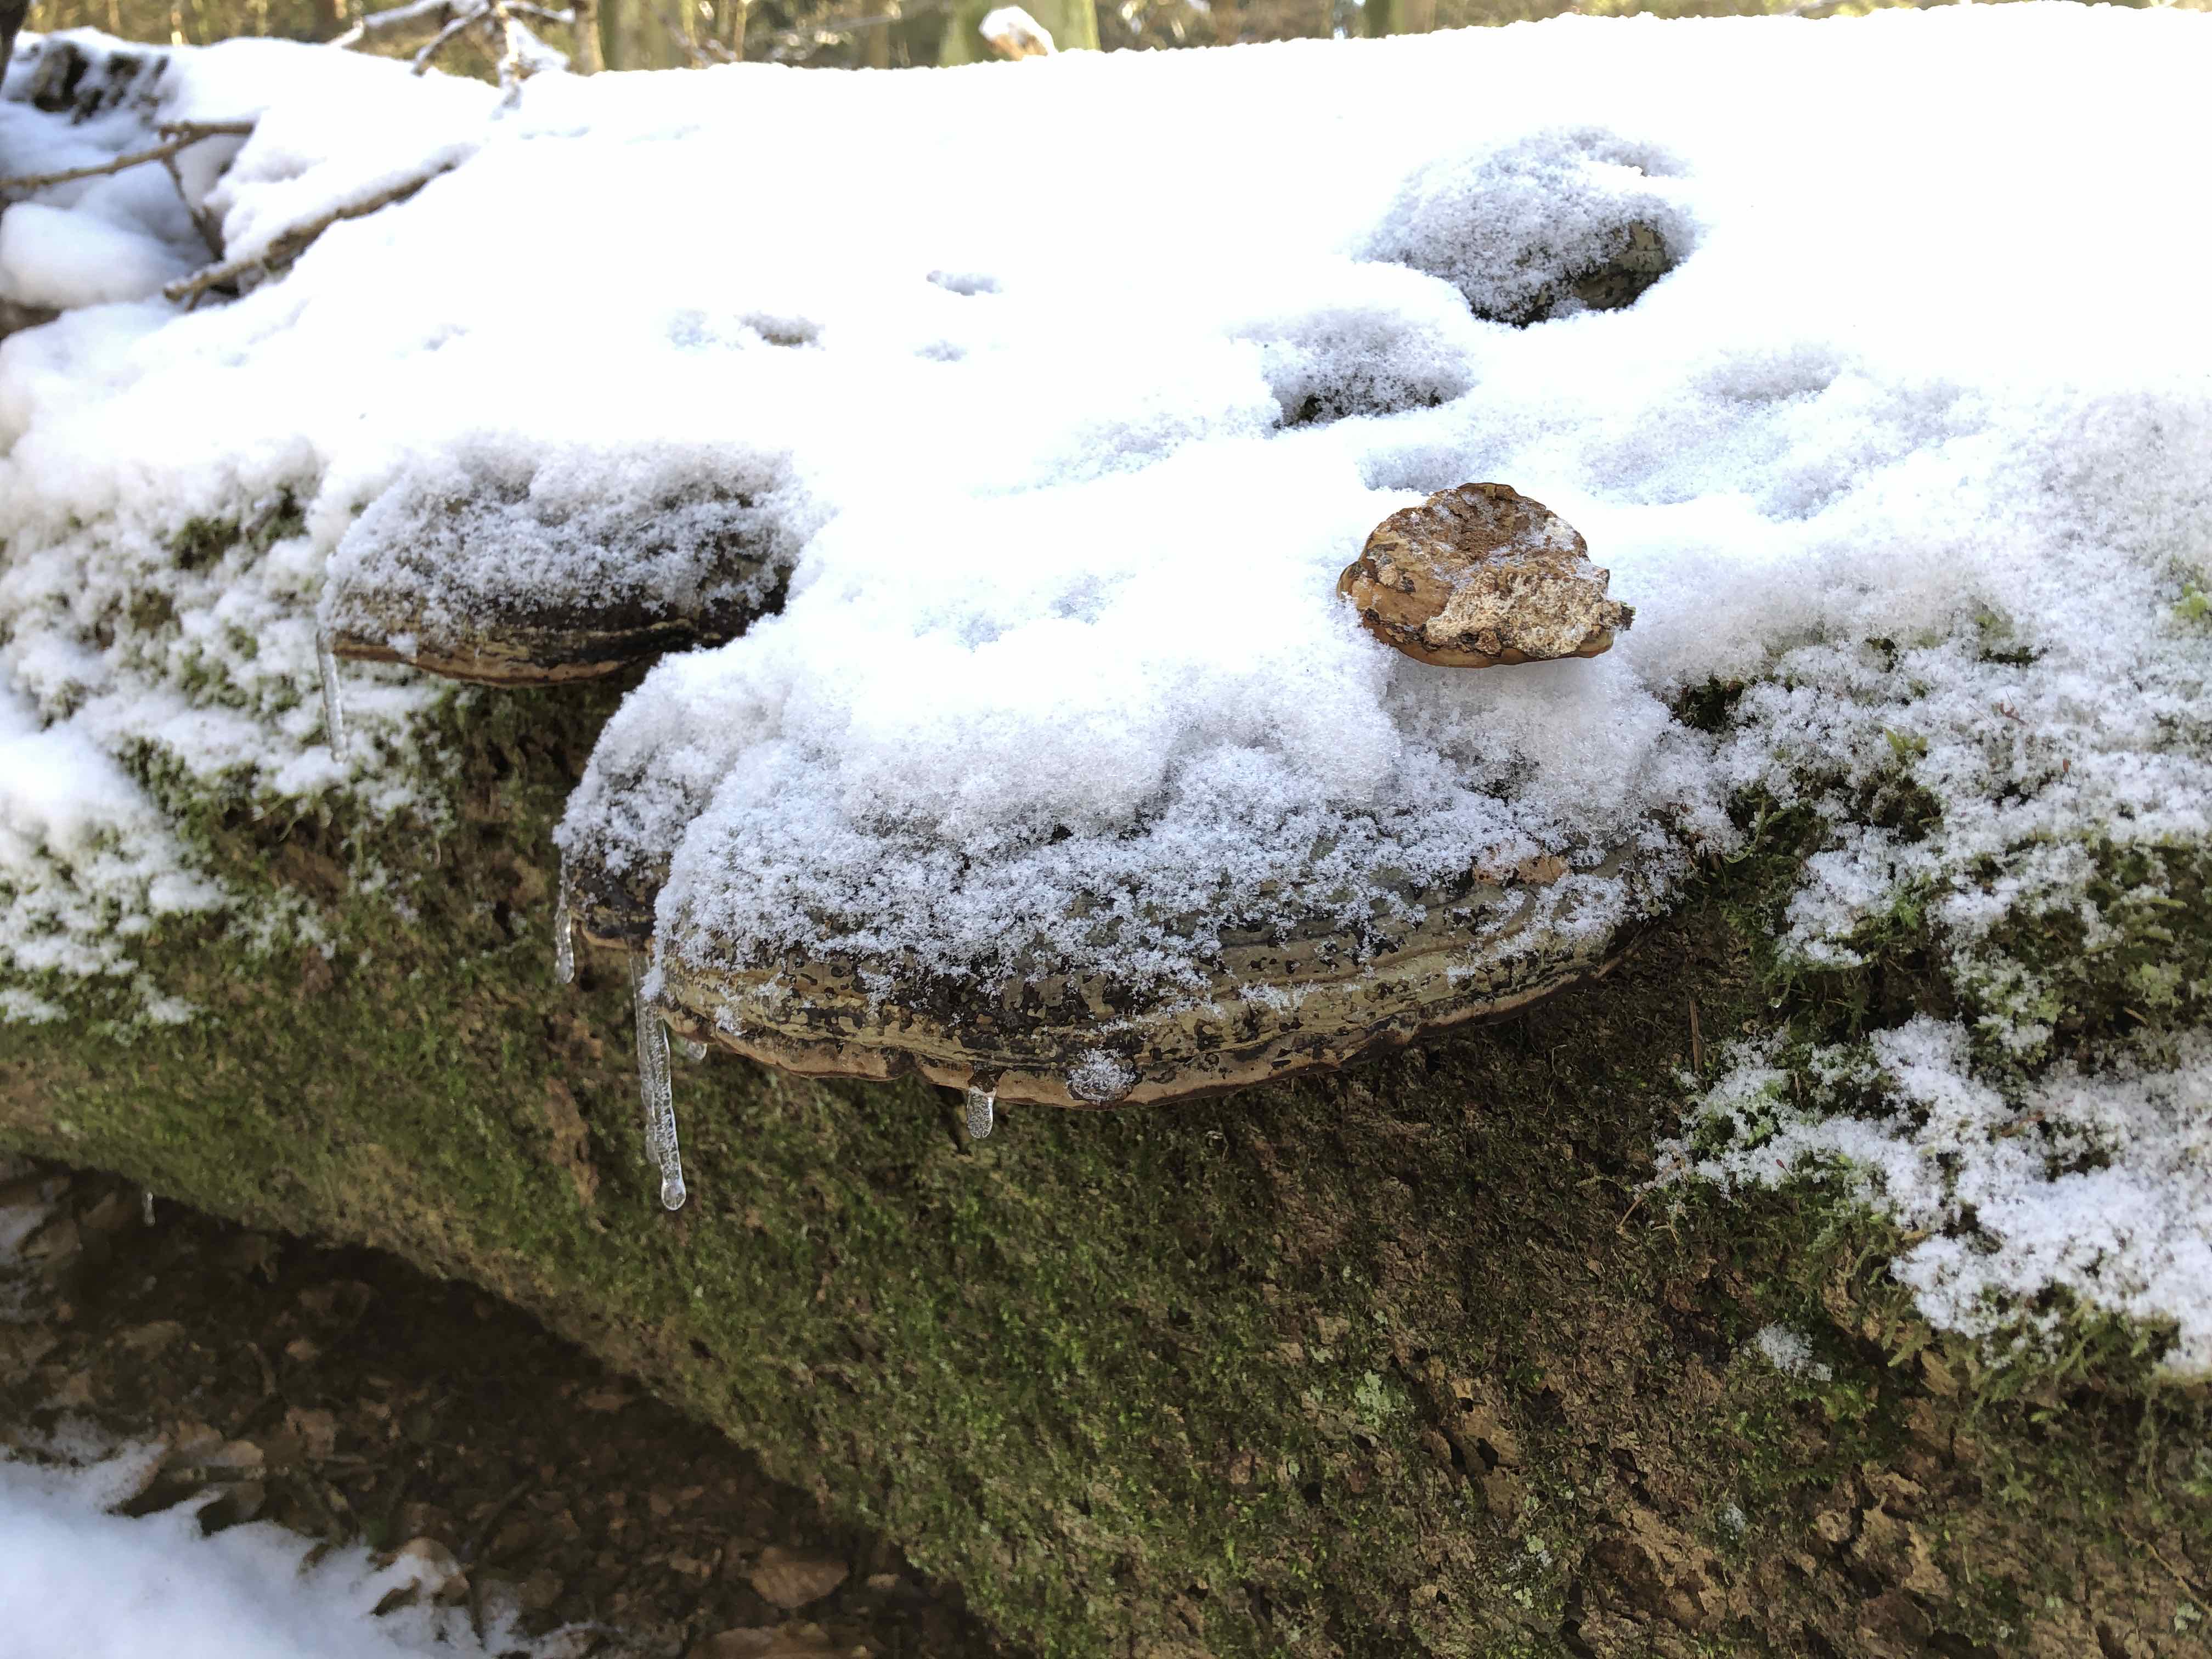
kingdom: Fungi
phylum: Basidiomycota
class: Agaricomycetes
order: Polyporales
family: Polyporaceae
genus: Fomes
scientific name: Fomes fomentarius
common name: tøndersvamp
